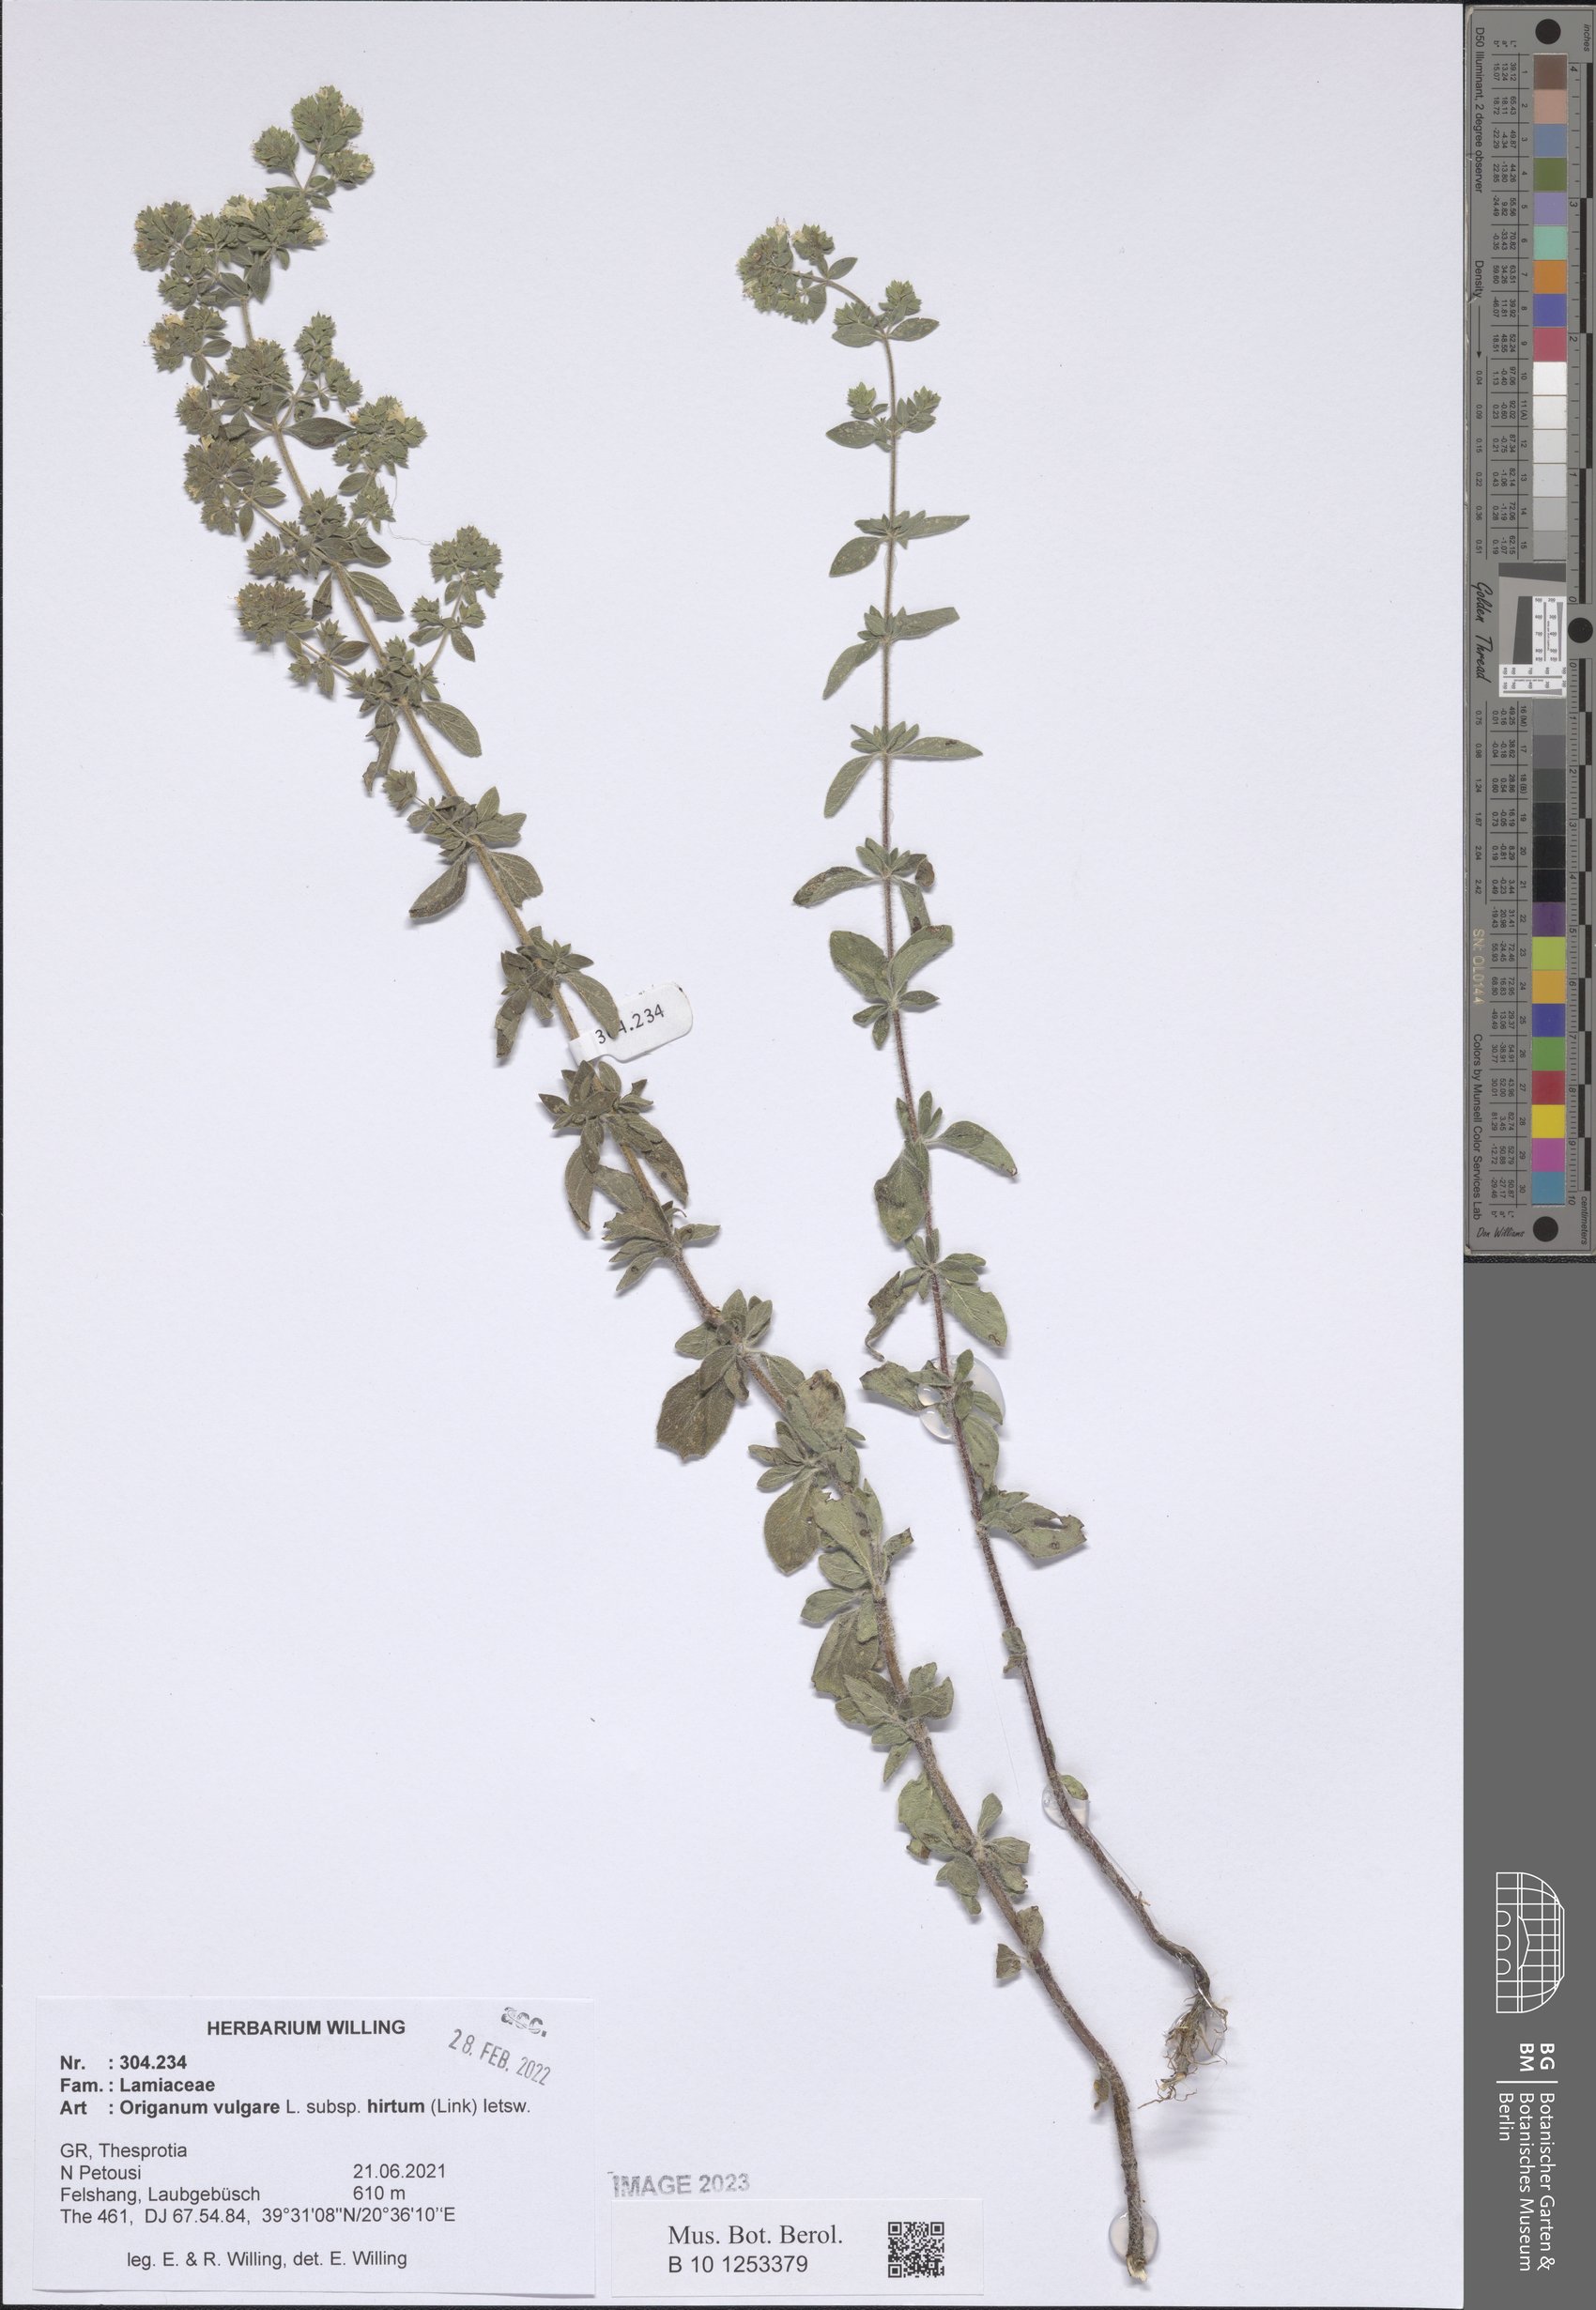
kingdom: Plantae
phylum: Tracheophyta
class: Magnoliopsida
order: Lamiales
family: Lamiaceae
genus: Origanum
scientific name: Origanum vulgare
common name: Wild marjoram
